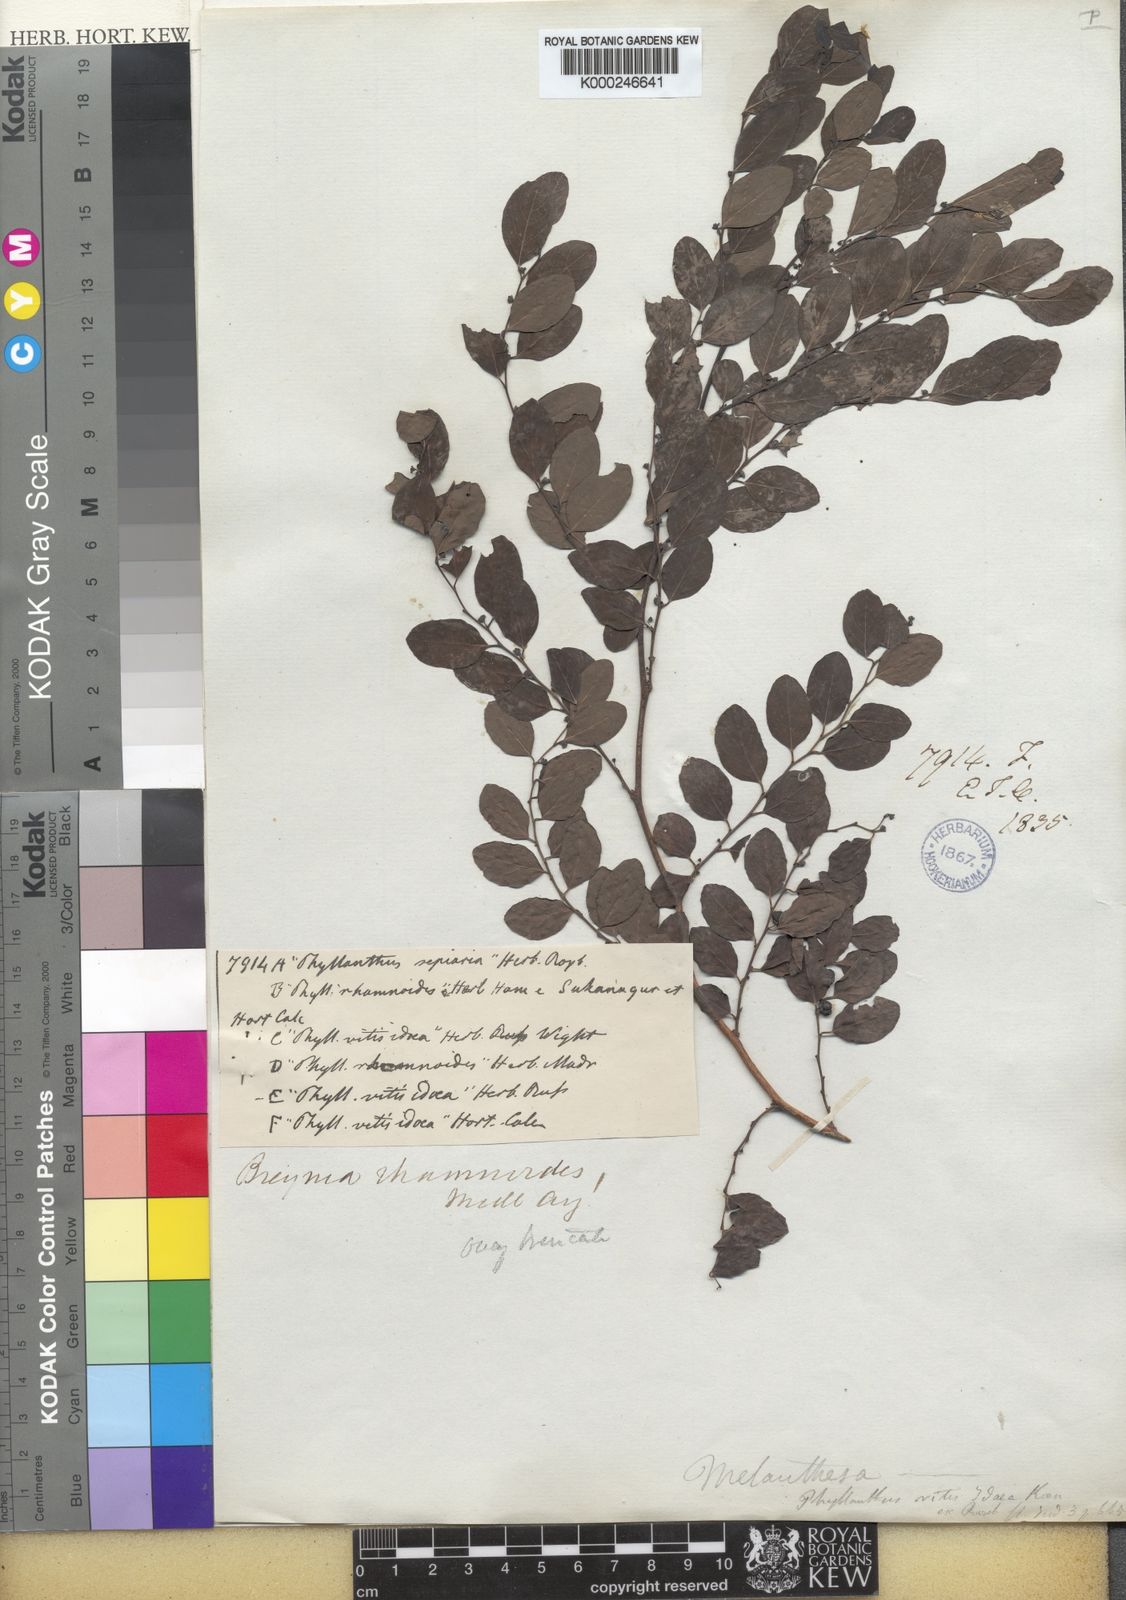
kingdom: Plantae
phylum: Tracheophyta
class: Magnoliopsida
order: Malpighiales
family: Phyllanthaceae
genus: Breynia
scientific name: Breynia vitis-idaea
